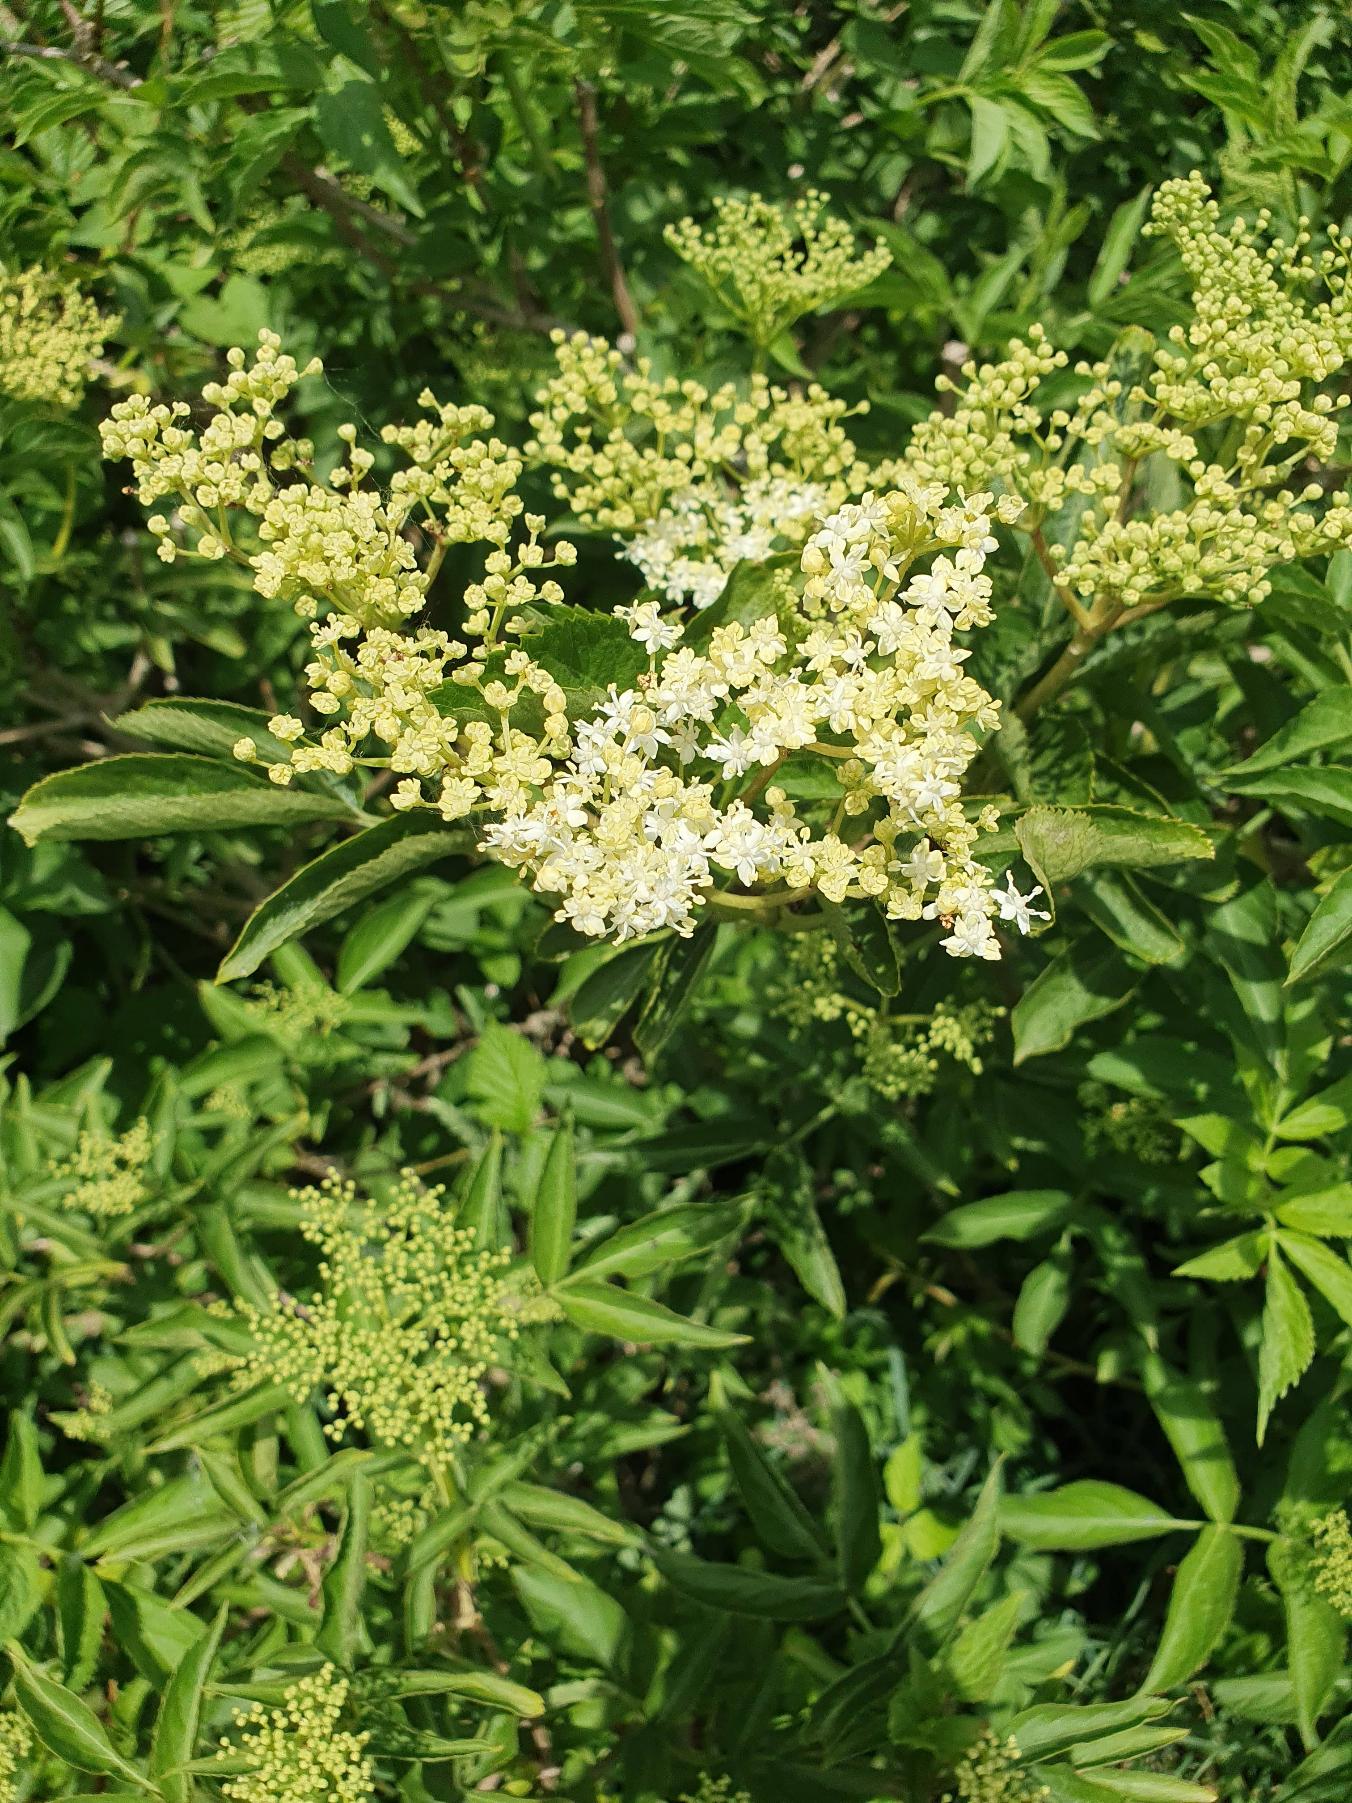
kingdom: Plantae
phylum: Tracheophyta
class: Magnoliopsida
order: Dipsacales
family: Viburnaceae
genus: Sambucus
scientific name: Sambucus nigra
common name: Almindelig hyld
